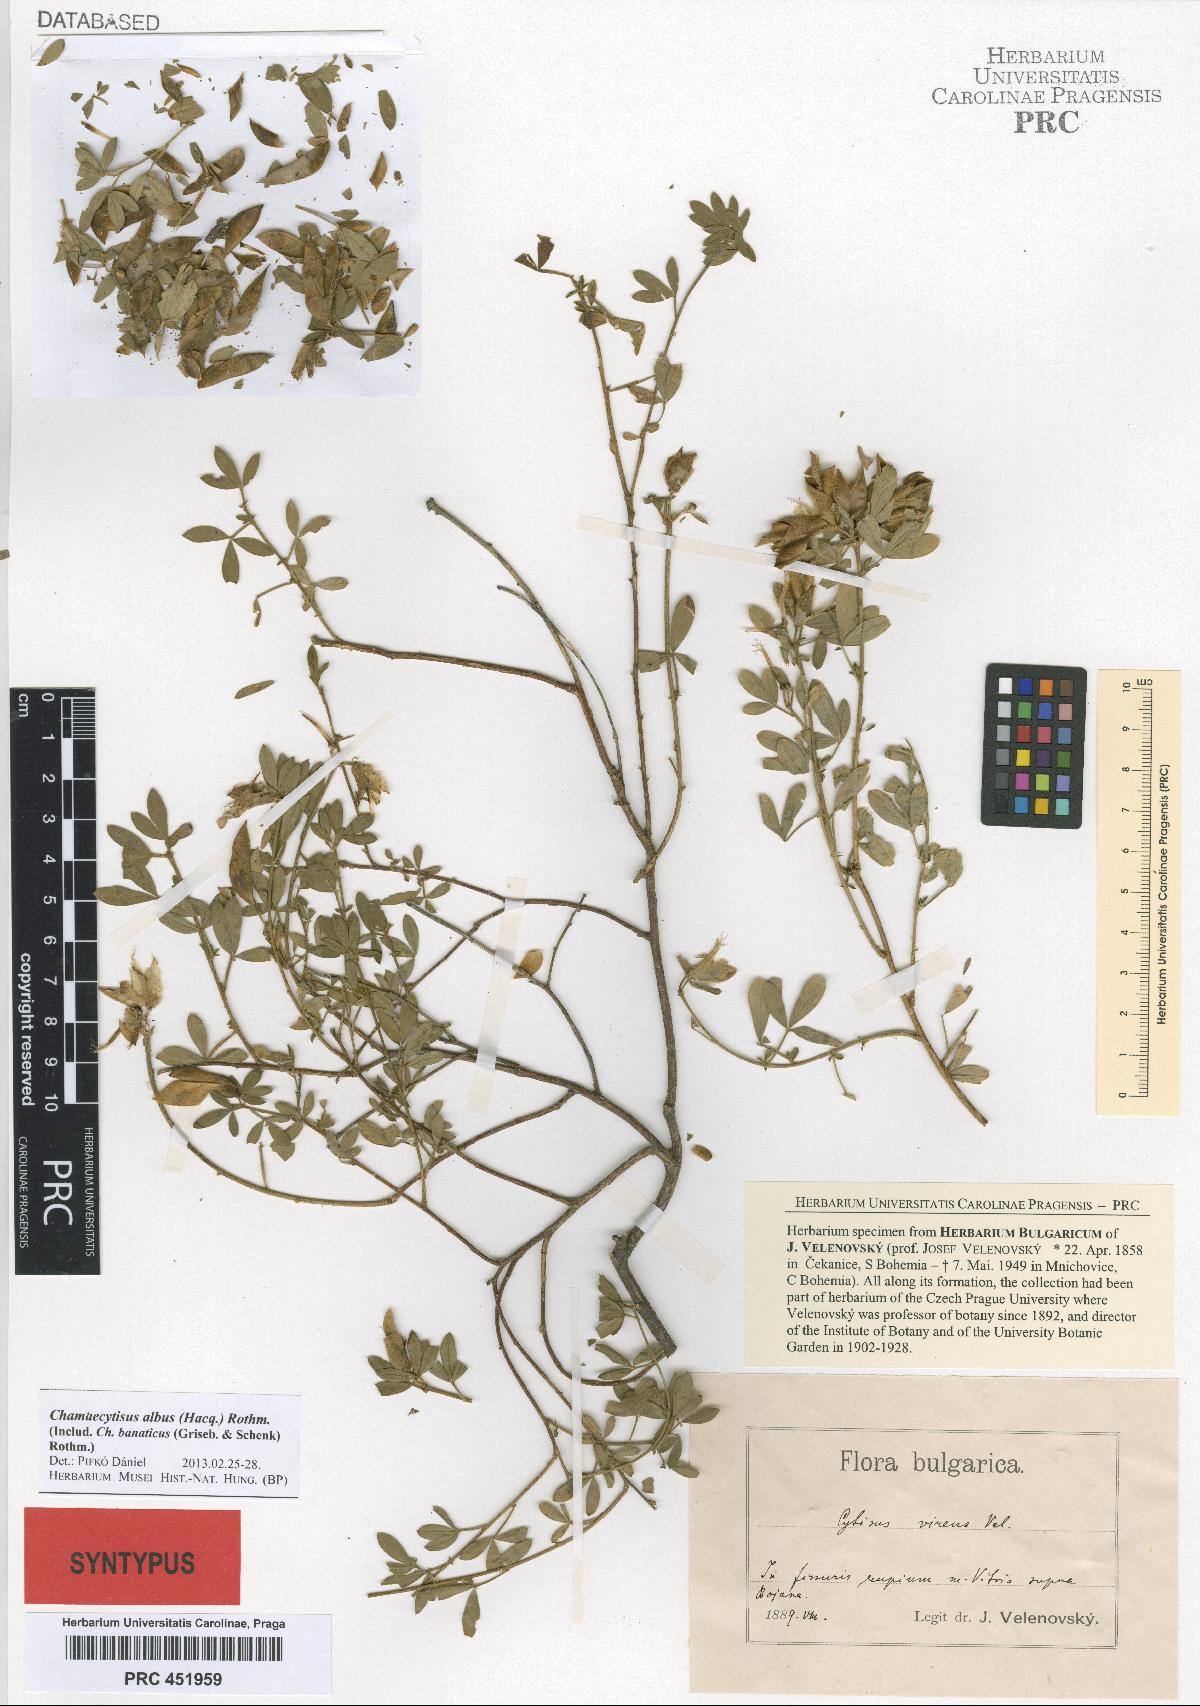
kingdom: Plantae
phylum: Tracheophyta
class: Magnoliopsida
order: Fabales
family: Fabaceae
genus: Chamaecytisus
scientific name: Chamaecytisus albus
